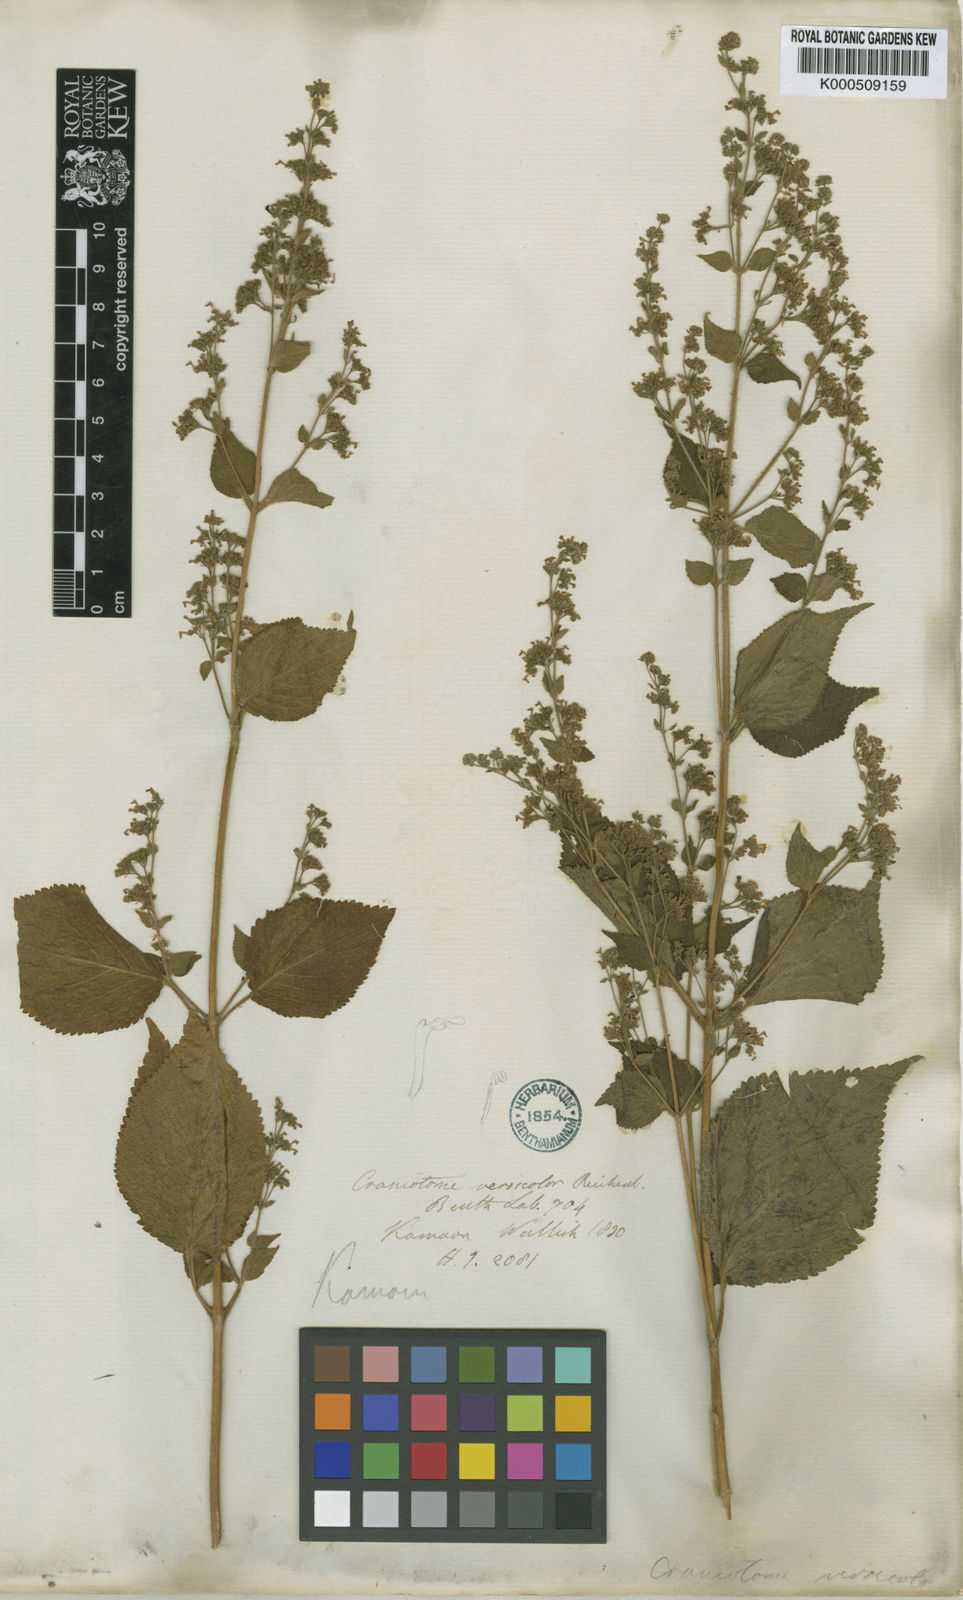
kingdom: Plantae
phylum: Tracheophyta
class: Magnoliopsida
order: Lamiales
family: Lamiaceae
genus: Craniotome
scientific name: Craniotome furcata
